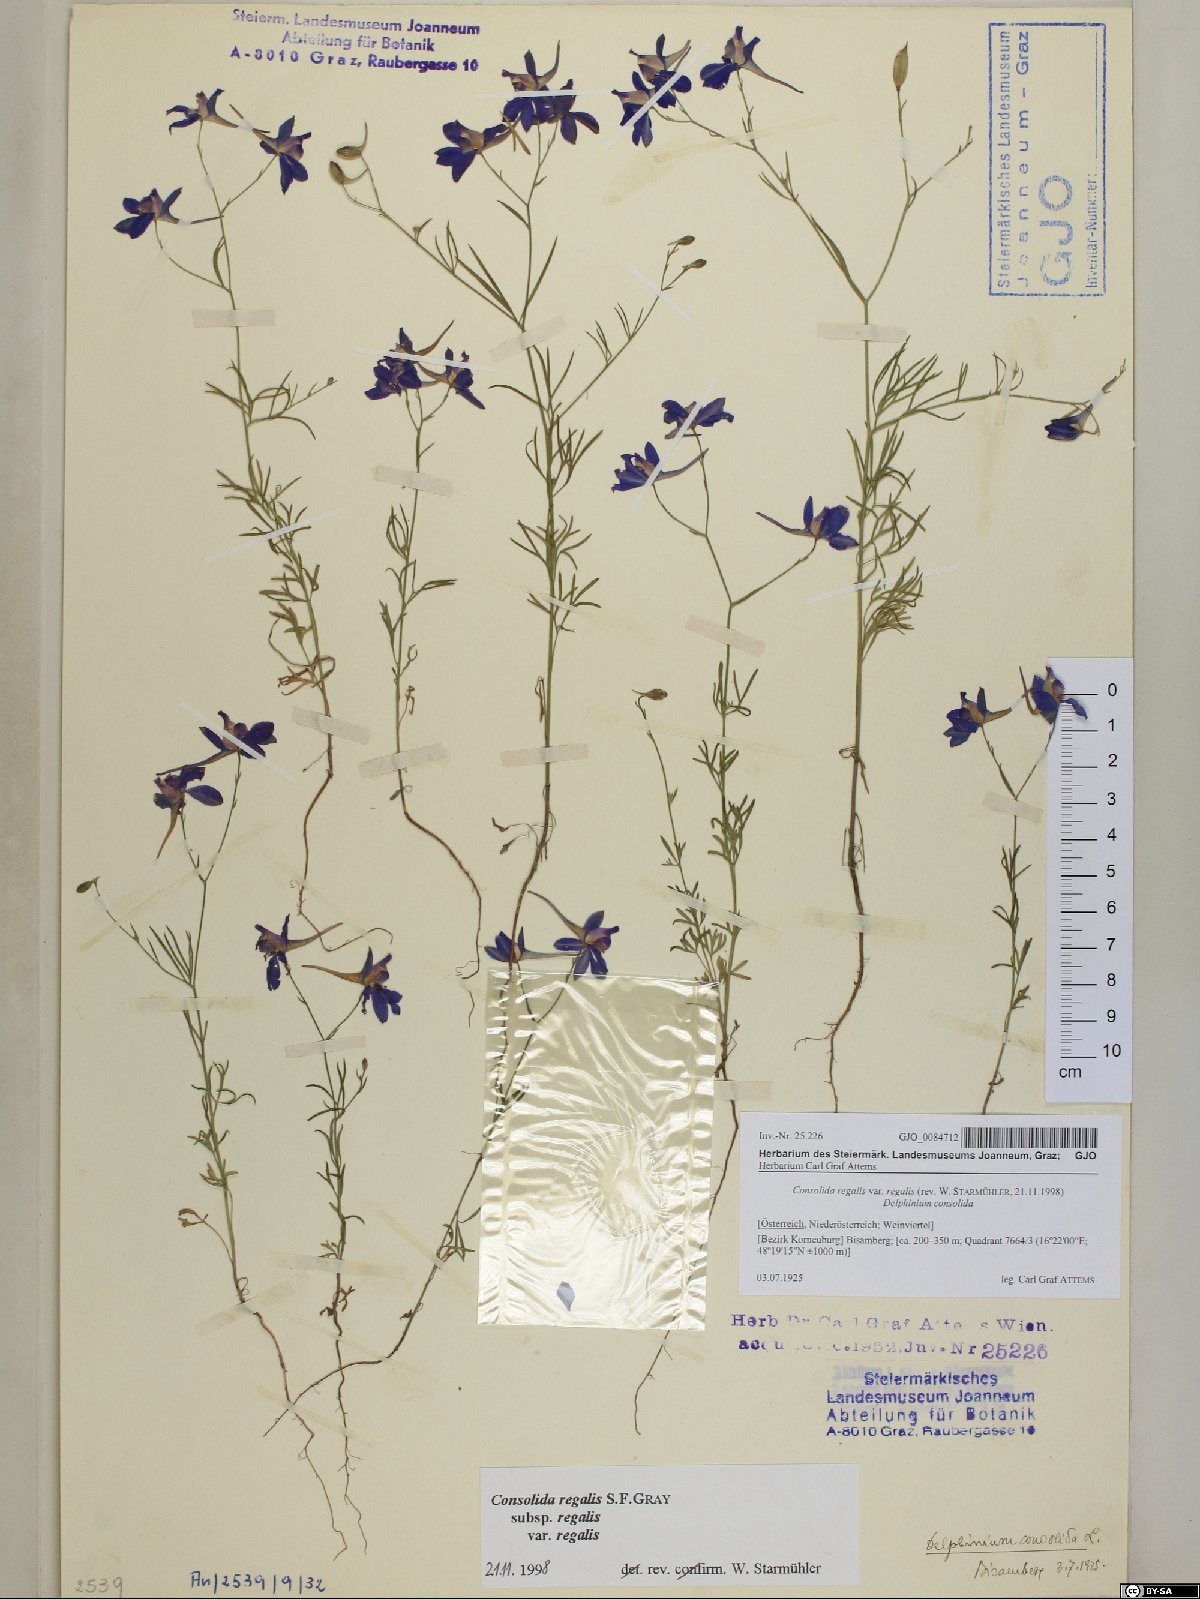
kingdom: Plantae
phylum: Tracheophyta
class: Magnoliopsida
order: Ranunculales
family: Ranunculaceae
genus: Delphinium
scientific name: Delphinium consolida
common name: Branching larkspur
